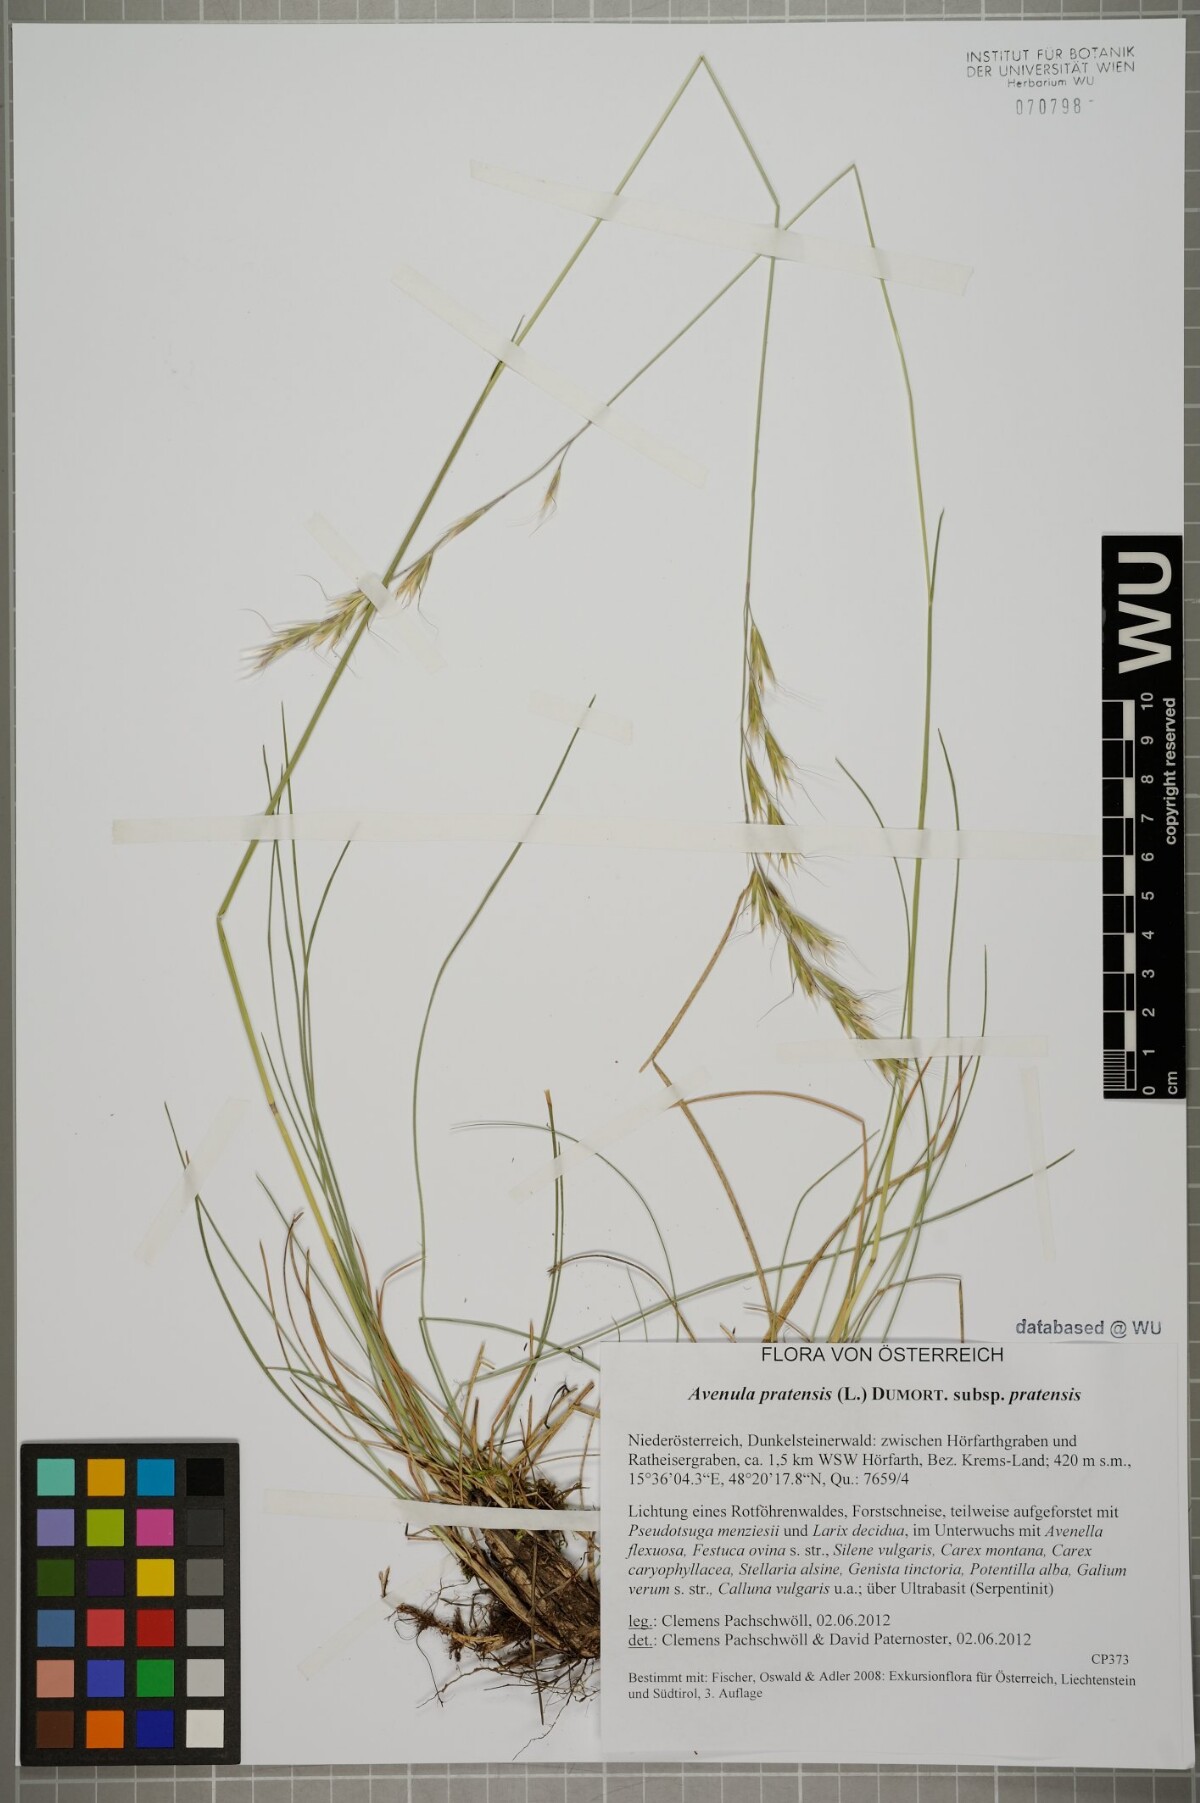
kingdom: Plantae
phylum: Tracheophyta
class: Liliopsida
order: Poales
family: Poaceae
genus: Helictochloa
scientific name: Helictochloa pratensis
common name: Meadow oat grass
